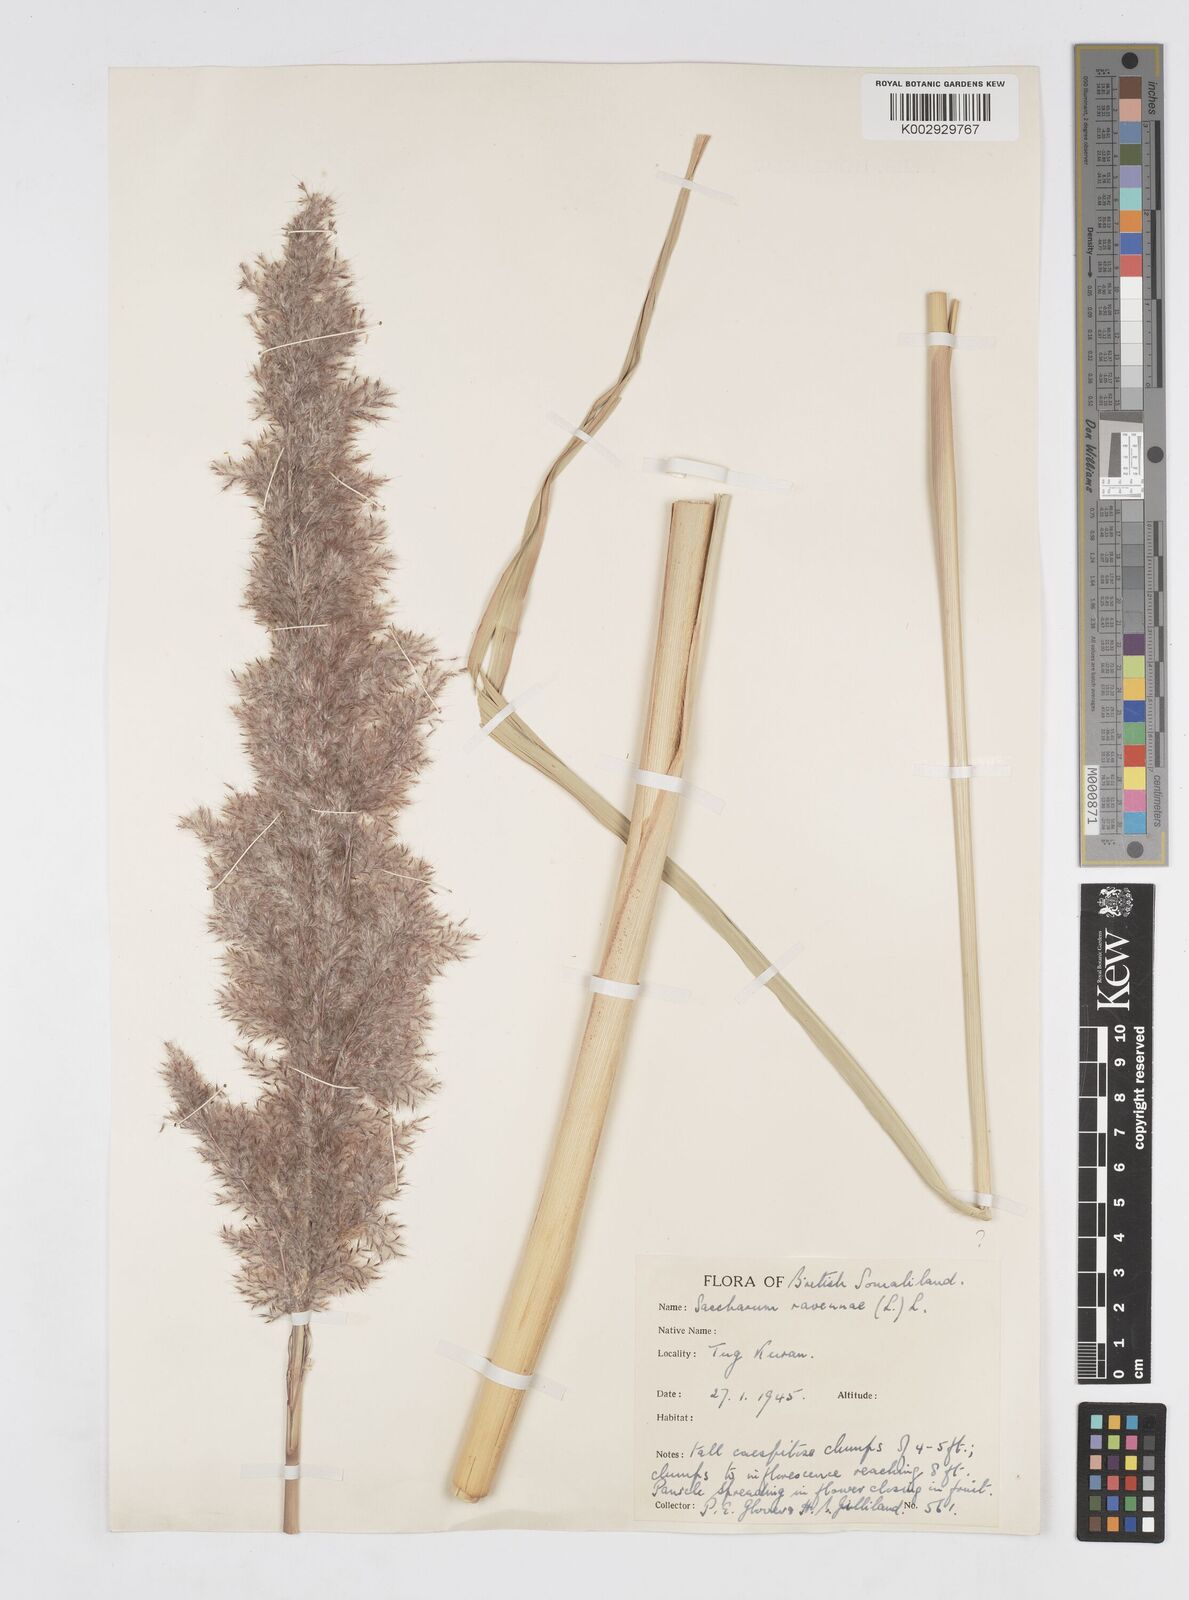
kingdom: Plantae
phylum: Tracheophyta
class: Liliopsida
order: Poales
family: Poaceae
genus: Tripidium
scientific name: Tripidium ravennae
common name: Ravenna grass
